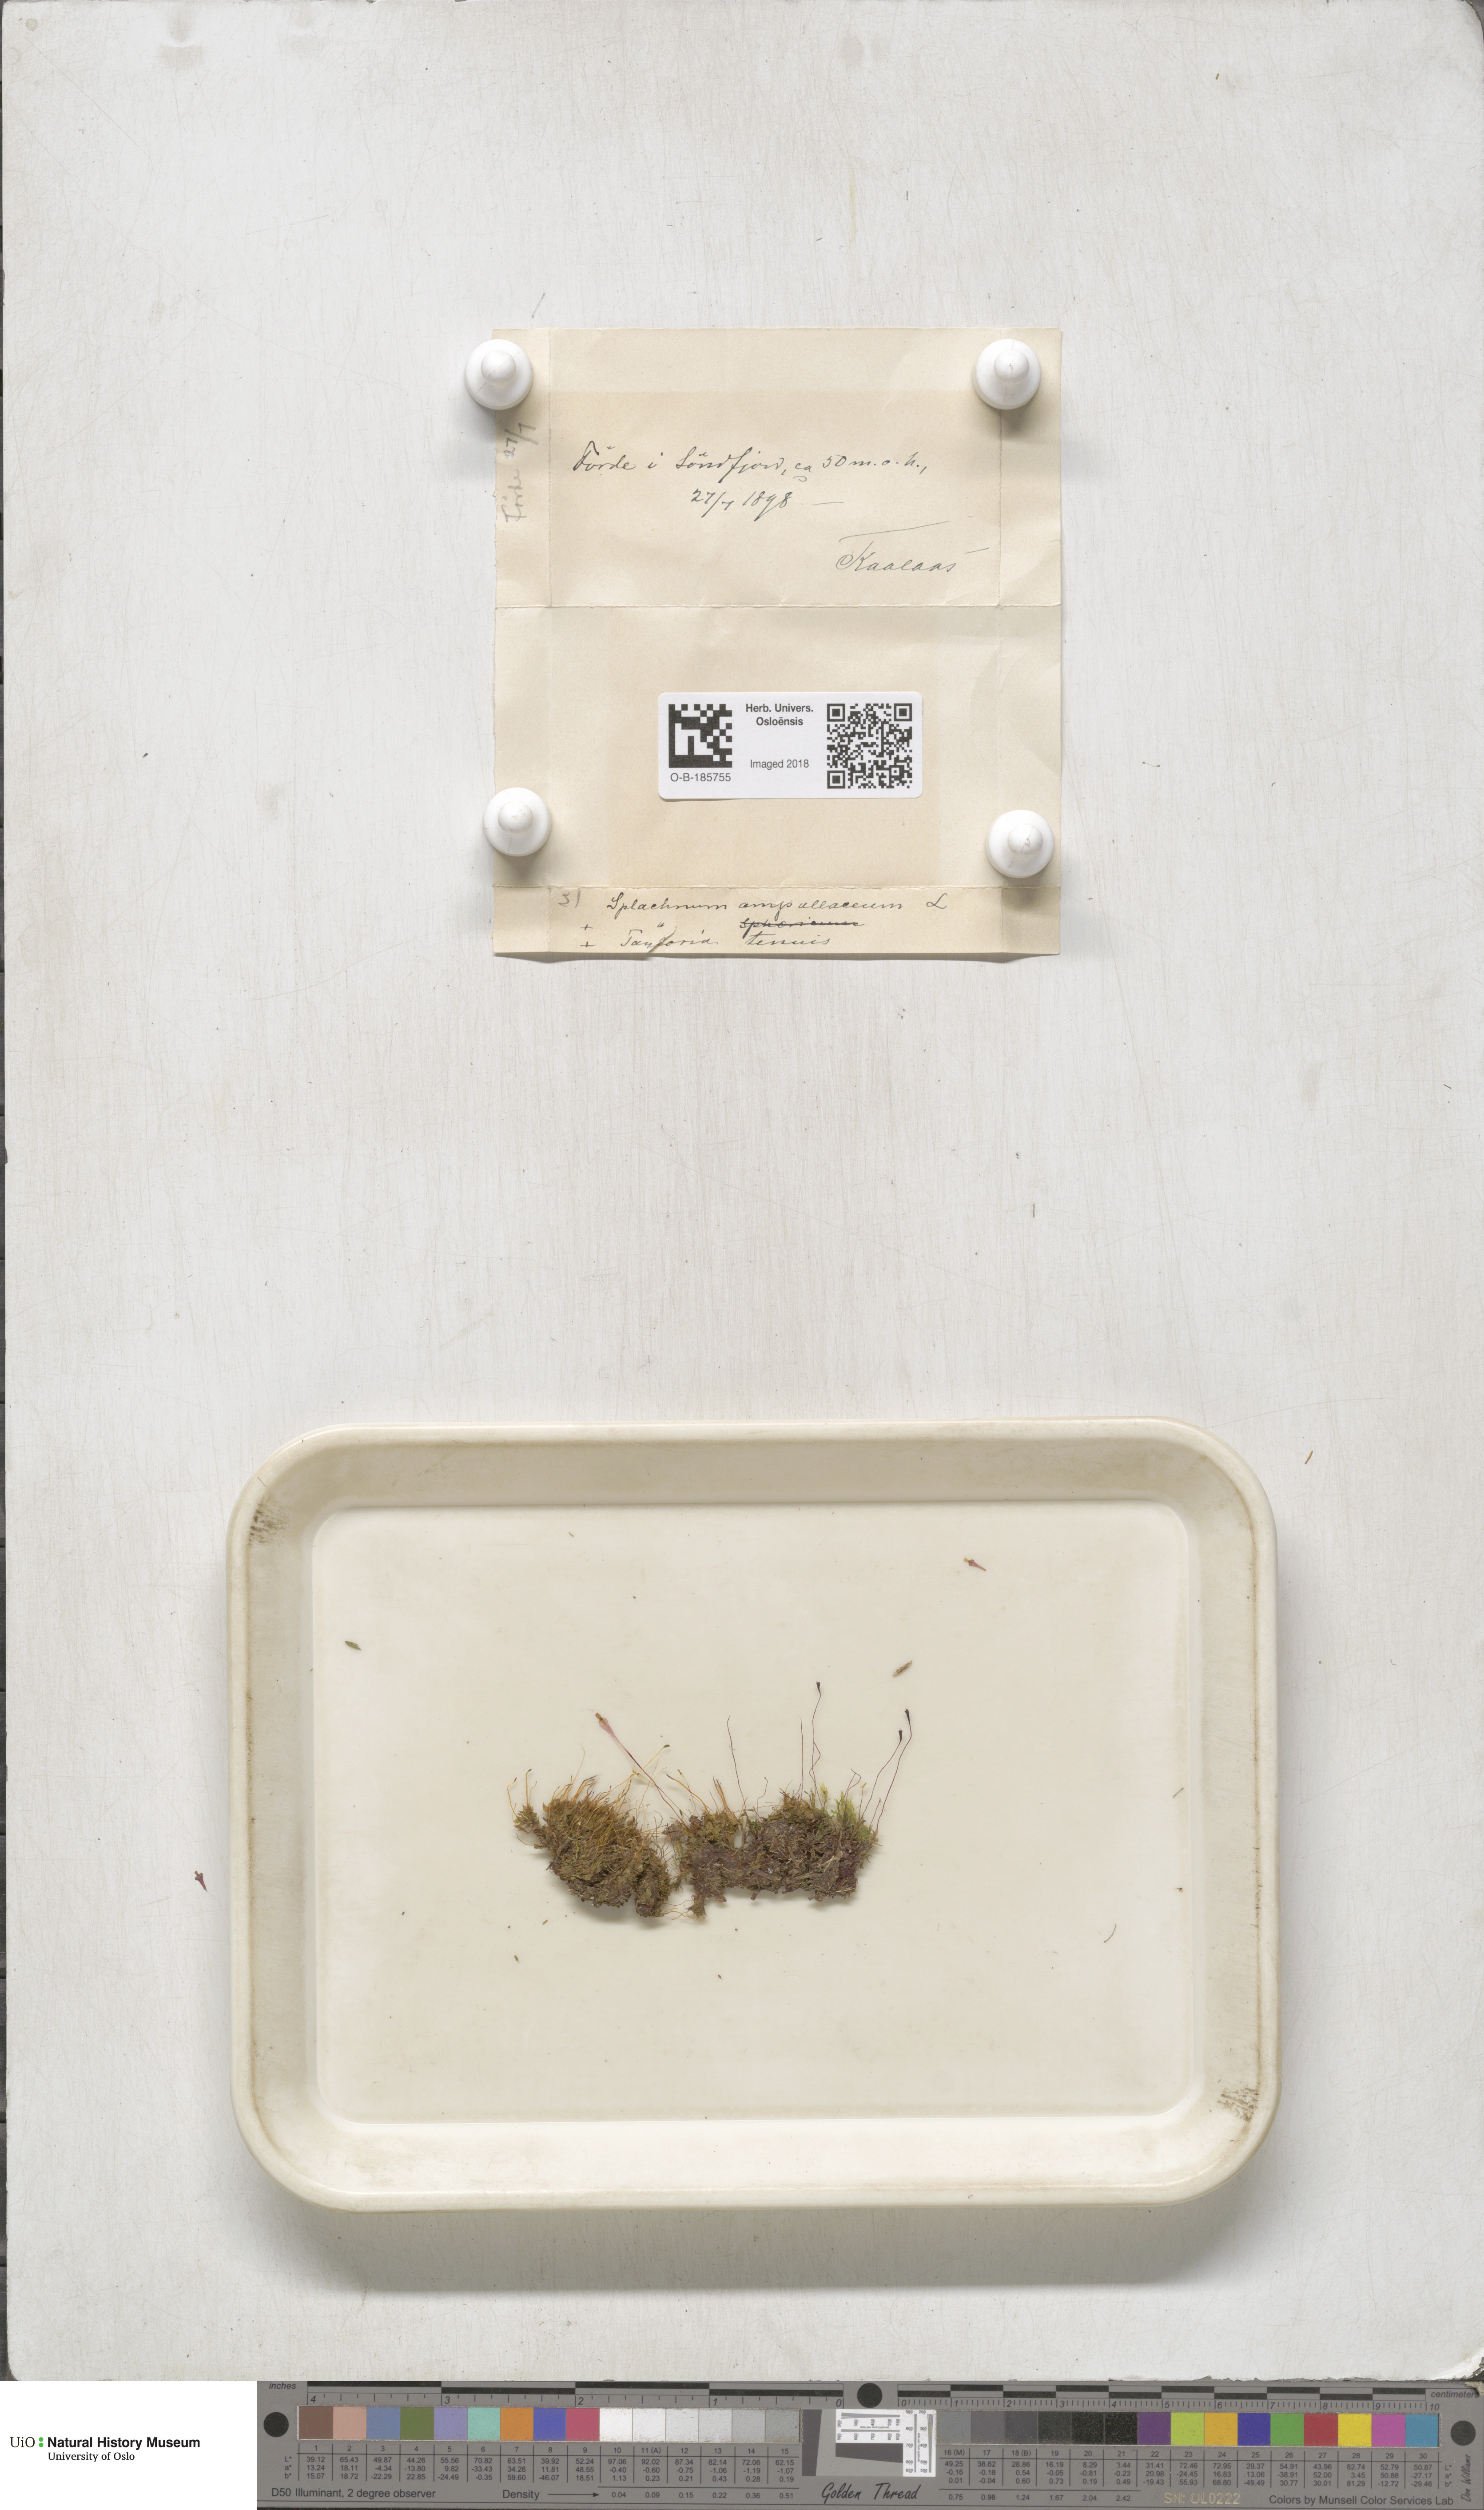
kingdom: Plantae
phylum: Bryophyta
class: Bryopsida
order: Splachnales
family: Splachnaceae
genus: Splachnum
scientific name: Splachnum ampullaceum
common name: Cruet dung moss
